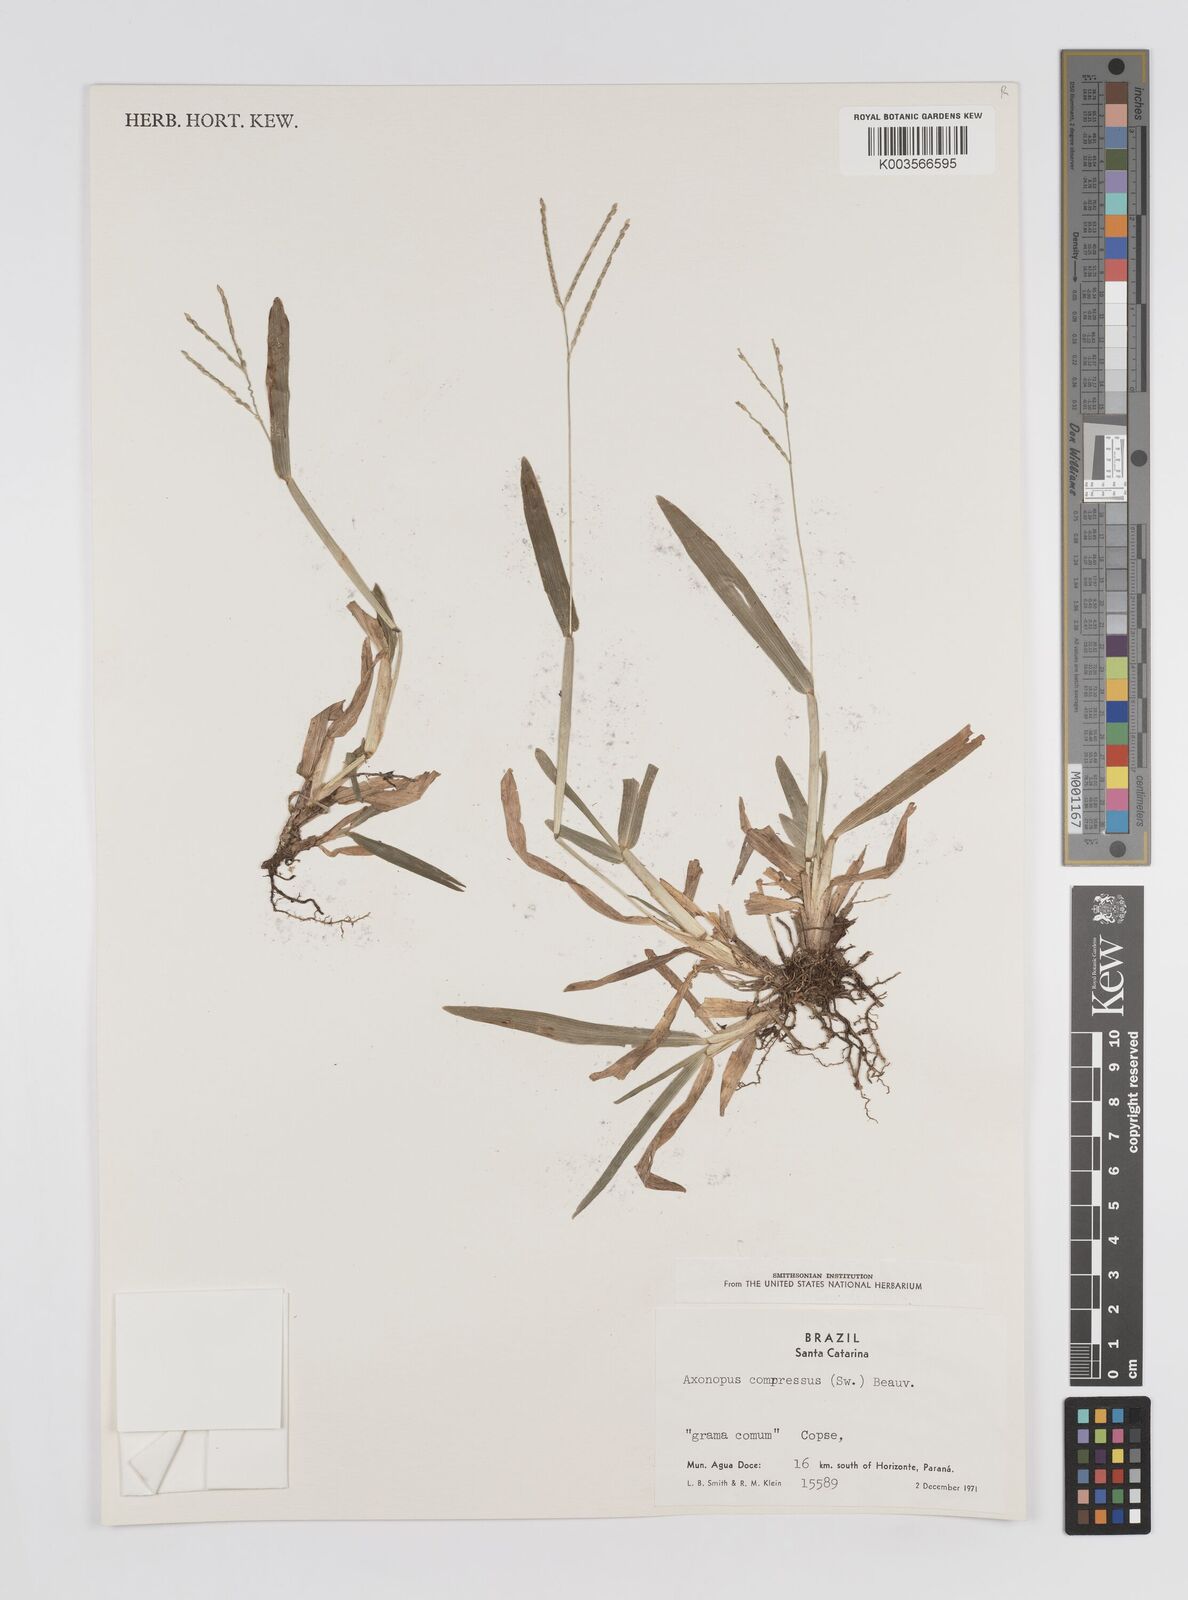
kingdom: Plantae
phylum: Tracheophyta
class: Liliopsida
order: Poales
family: Poaceae
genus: Axonopus
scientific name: Axonopus compressus
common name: American carpet grass
